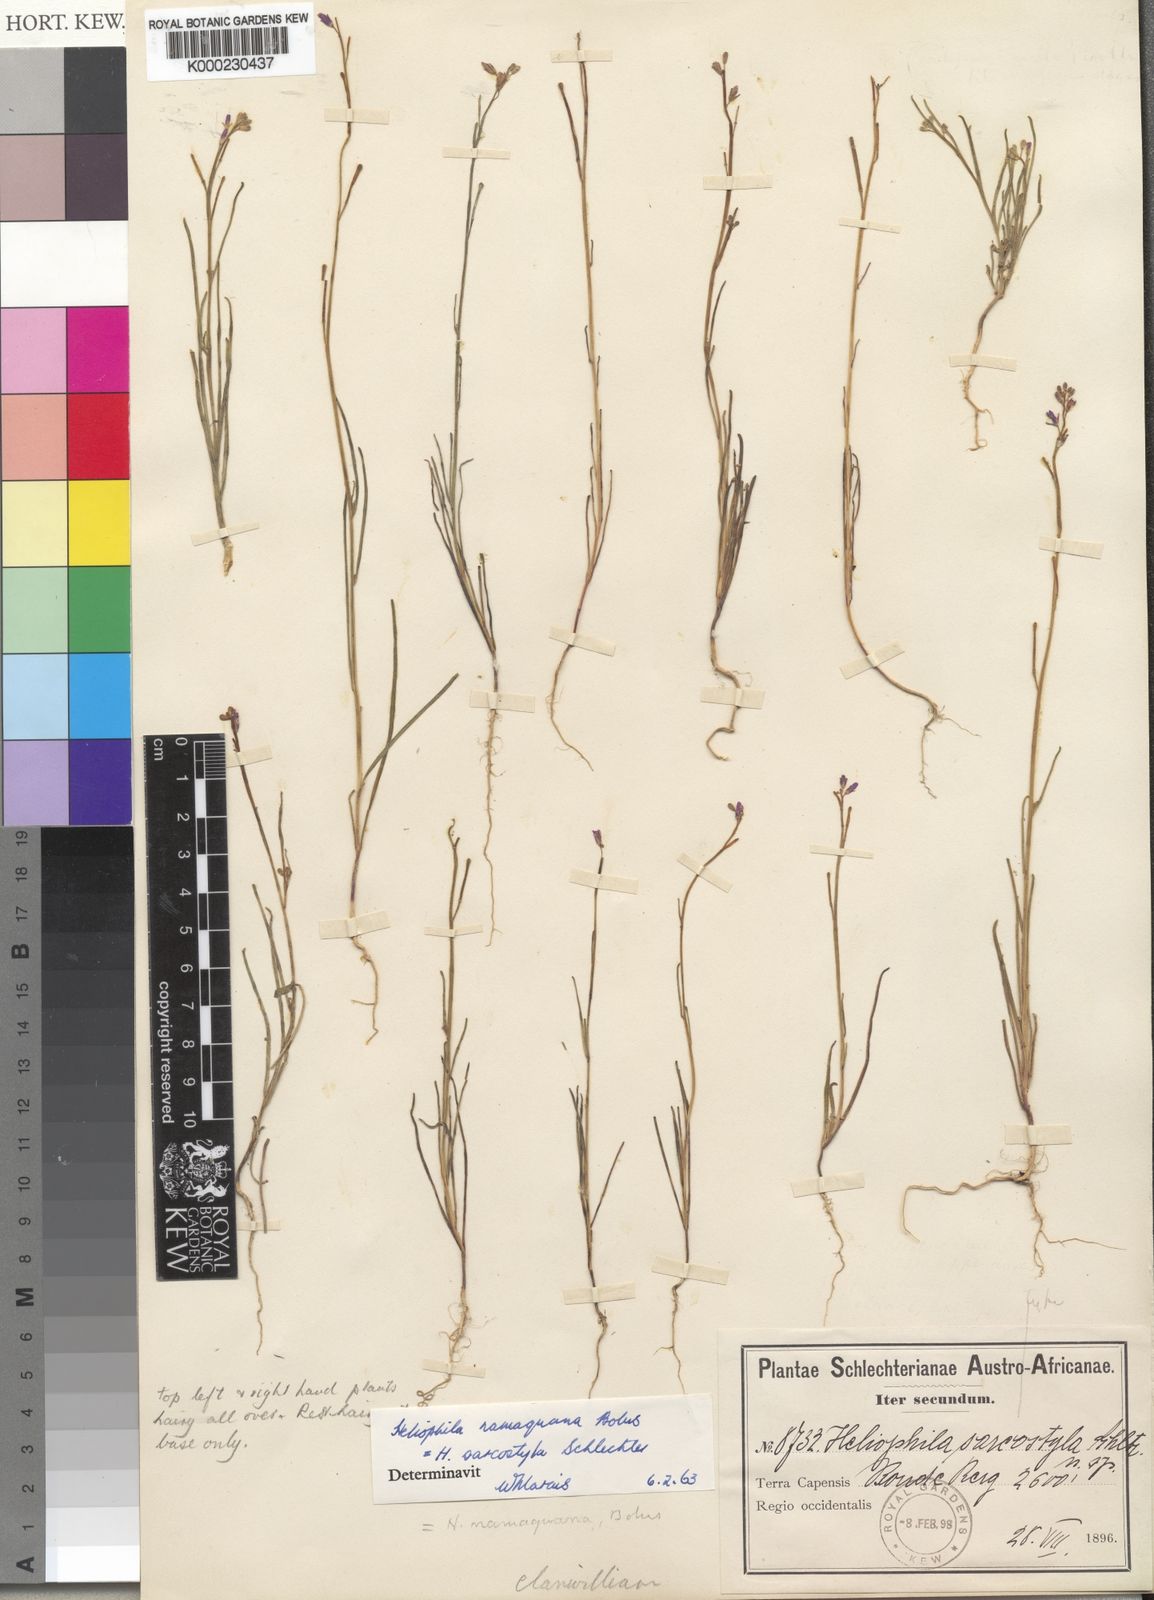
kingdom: Plantae
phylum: Tracheophyta
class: Magnoliopsida
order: Brassicales
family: Brassicaceae
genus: Heliophila
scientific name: Heliophila namaquana
